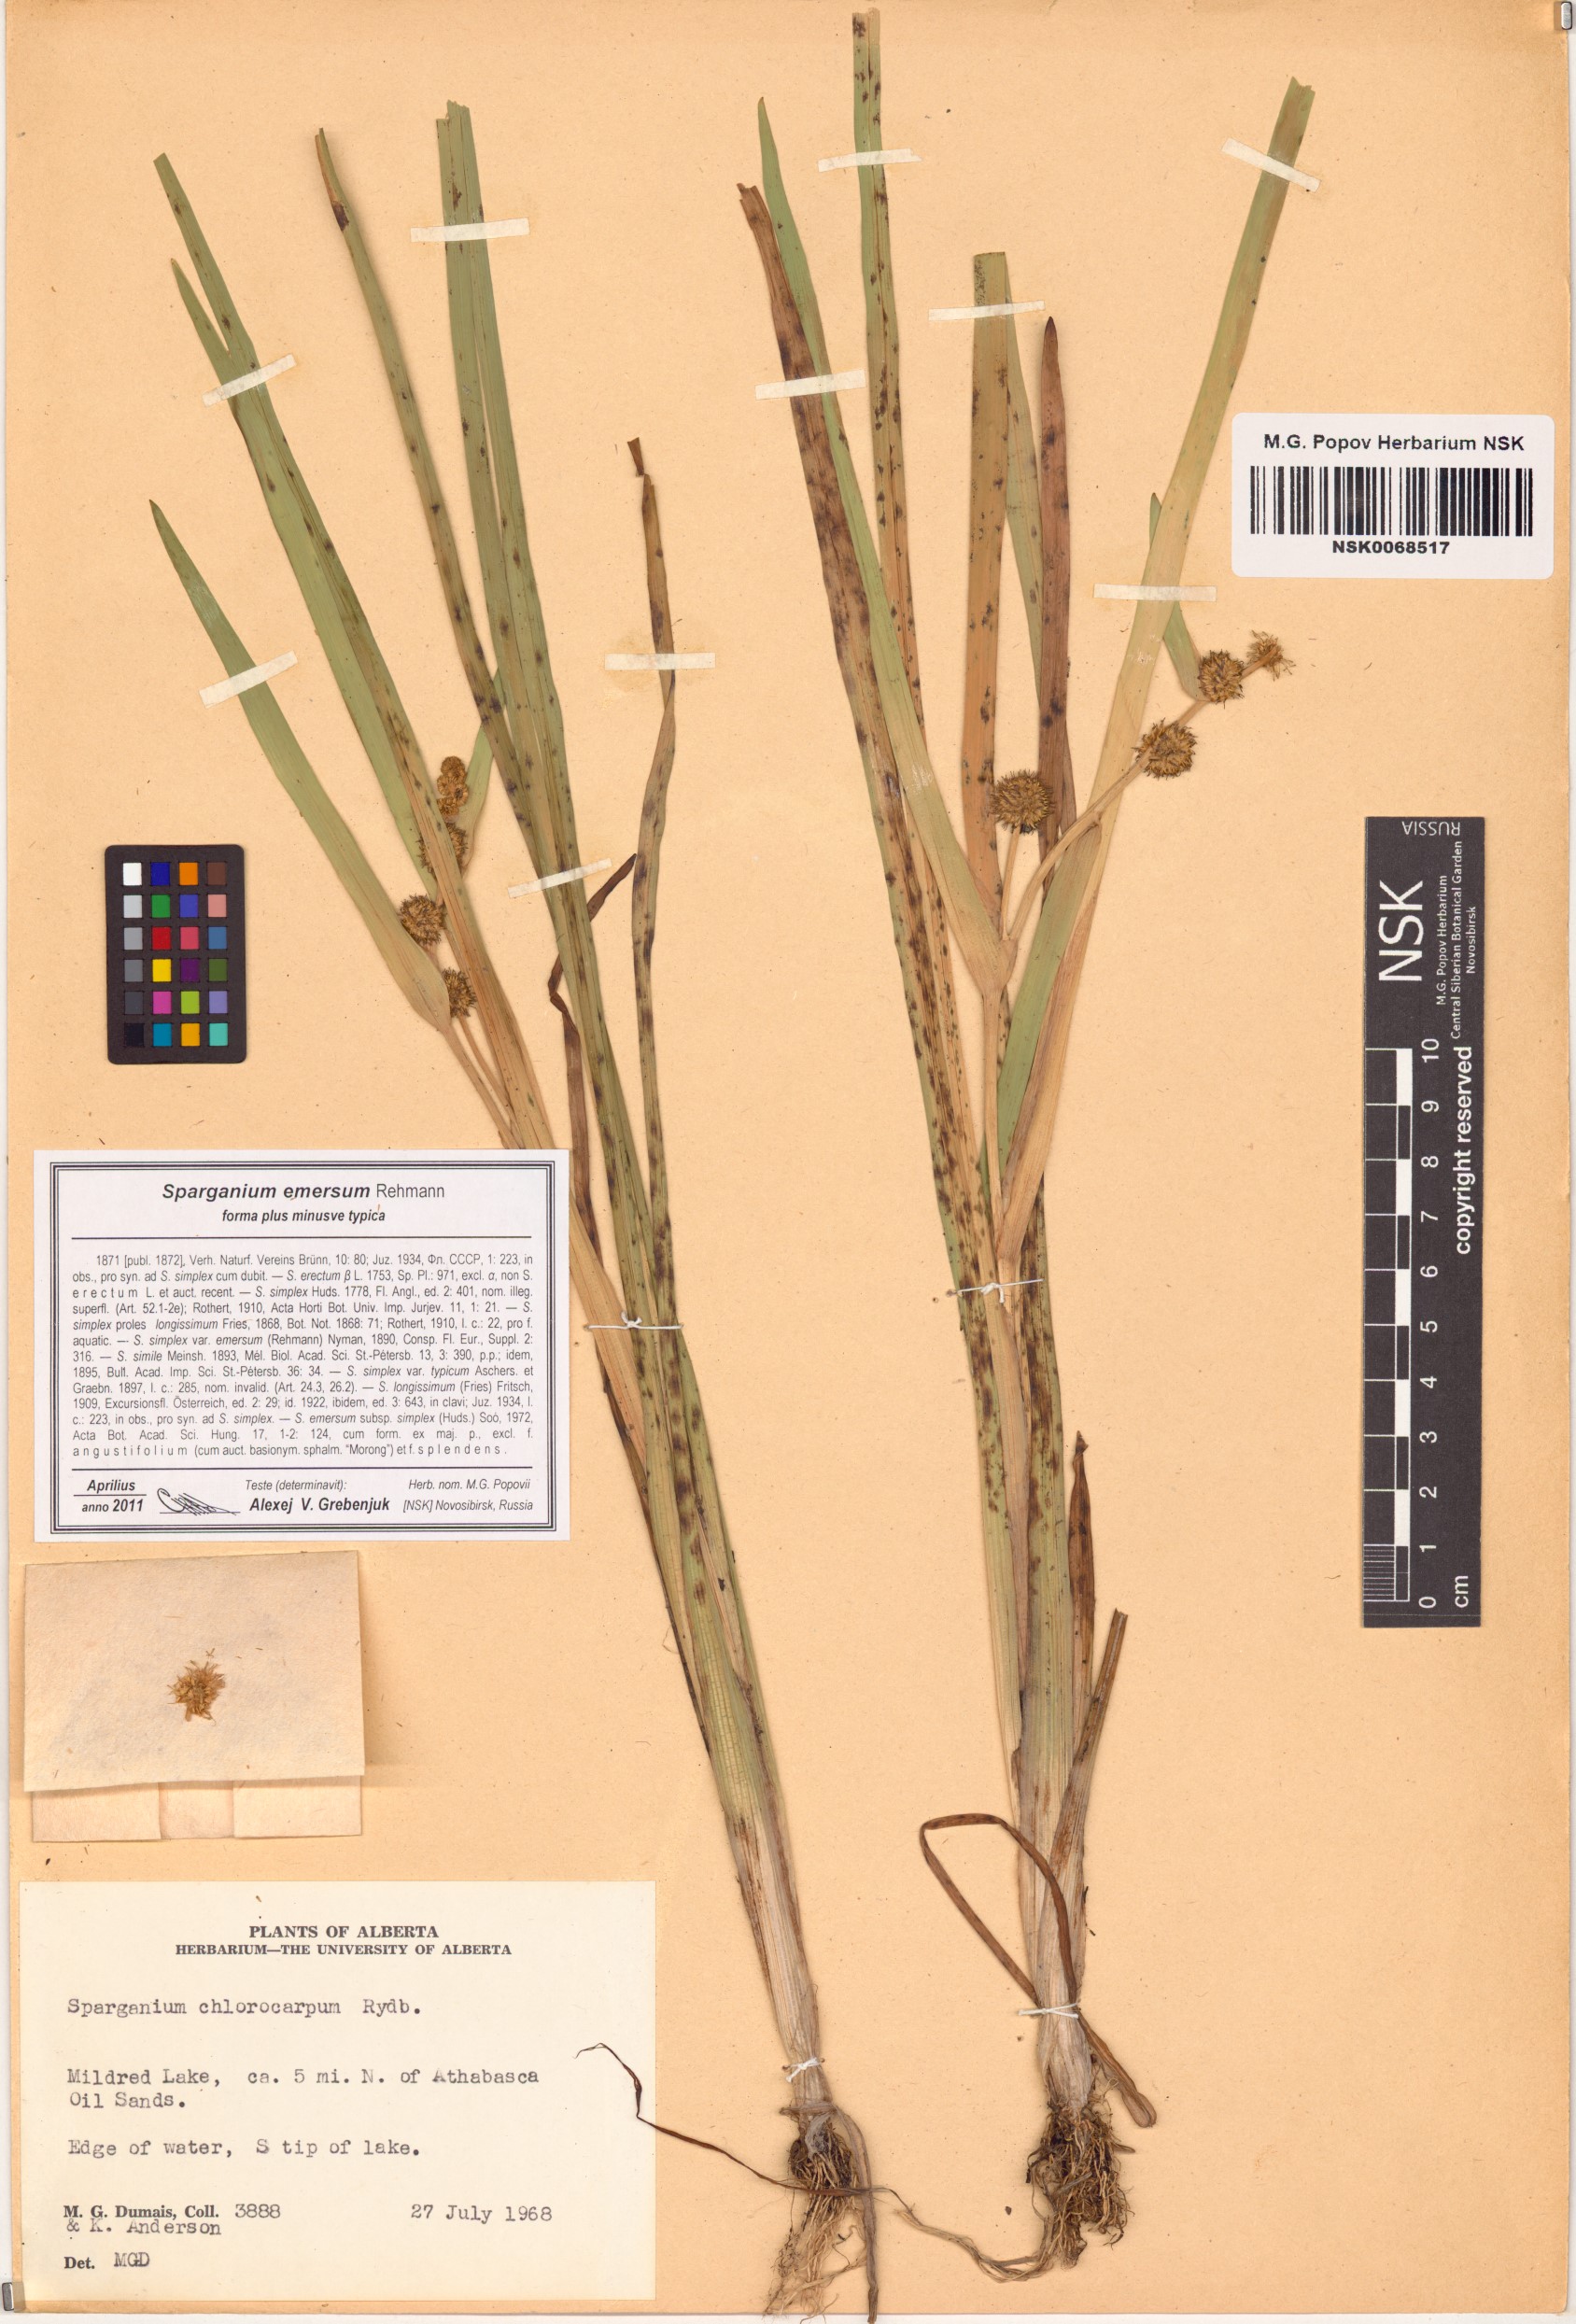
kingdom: Plantae
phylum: Tracheophyta
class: Liliopsida
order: Poales
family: Typhaceae
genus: Sparganium
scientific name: Sparganium emersum
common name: Unbranched bur-reed
